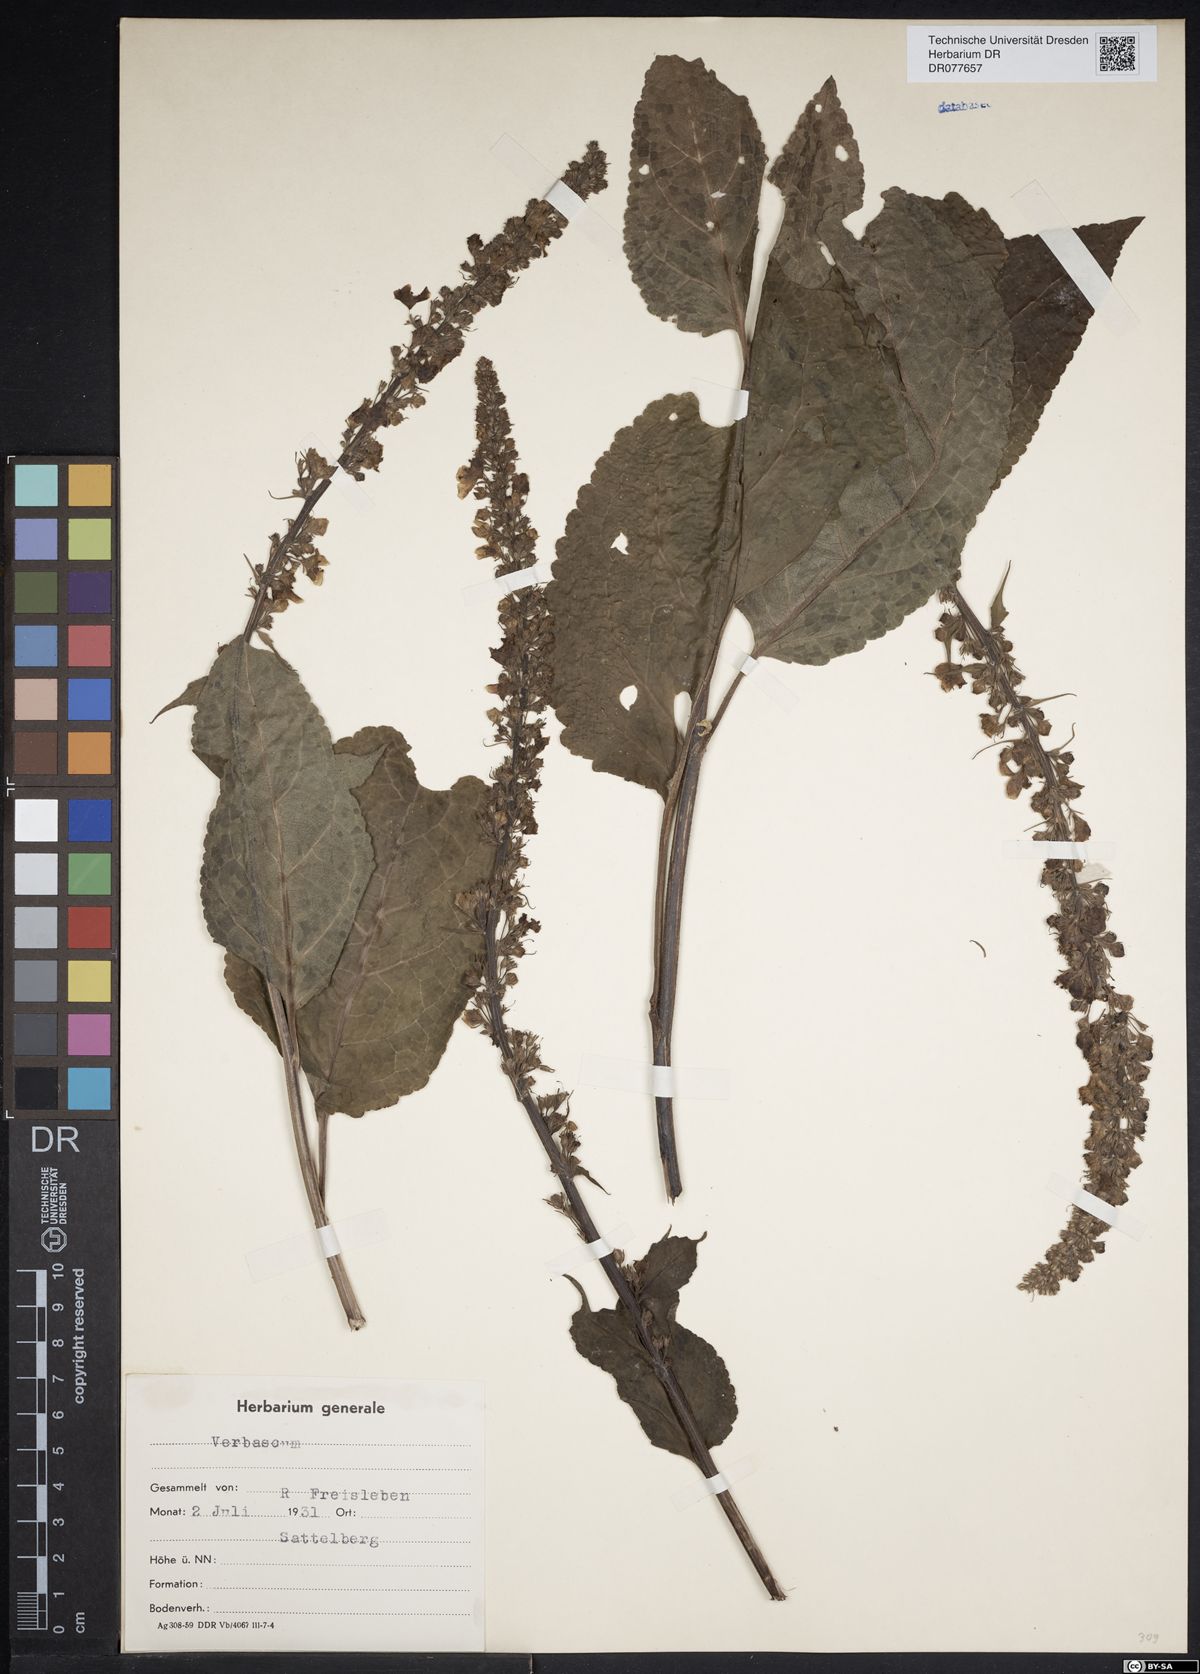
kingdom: Plantae
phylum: Tracheophyta
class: Magnoliopsida
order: Lamiales
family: Scrophulariaceae
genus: Verbascum
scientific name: Verbascum
